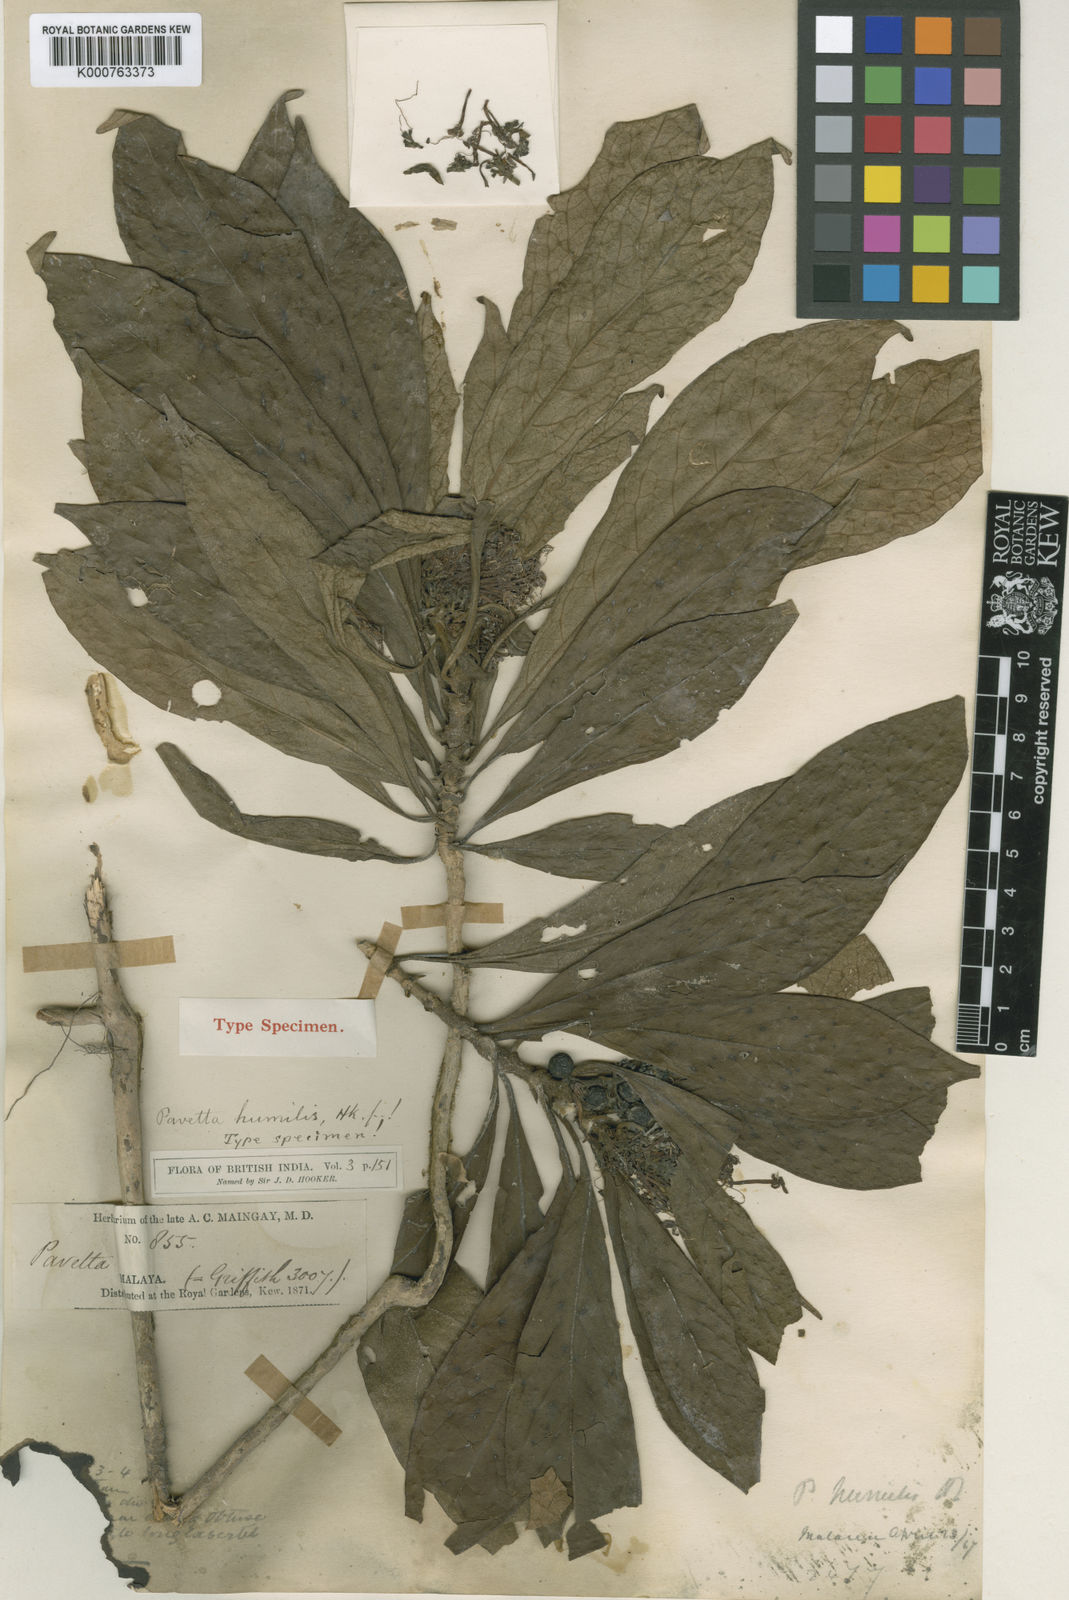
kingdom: Plantae
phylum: Tracheophyta
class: Magnoliopsida
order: Gentianales
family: Rubiaceae
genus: Pavetta
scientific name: Pavetta humilis
